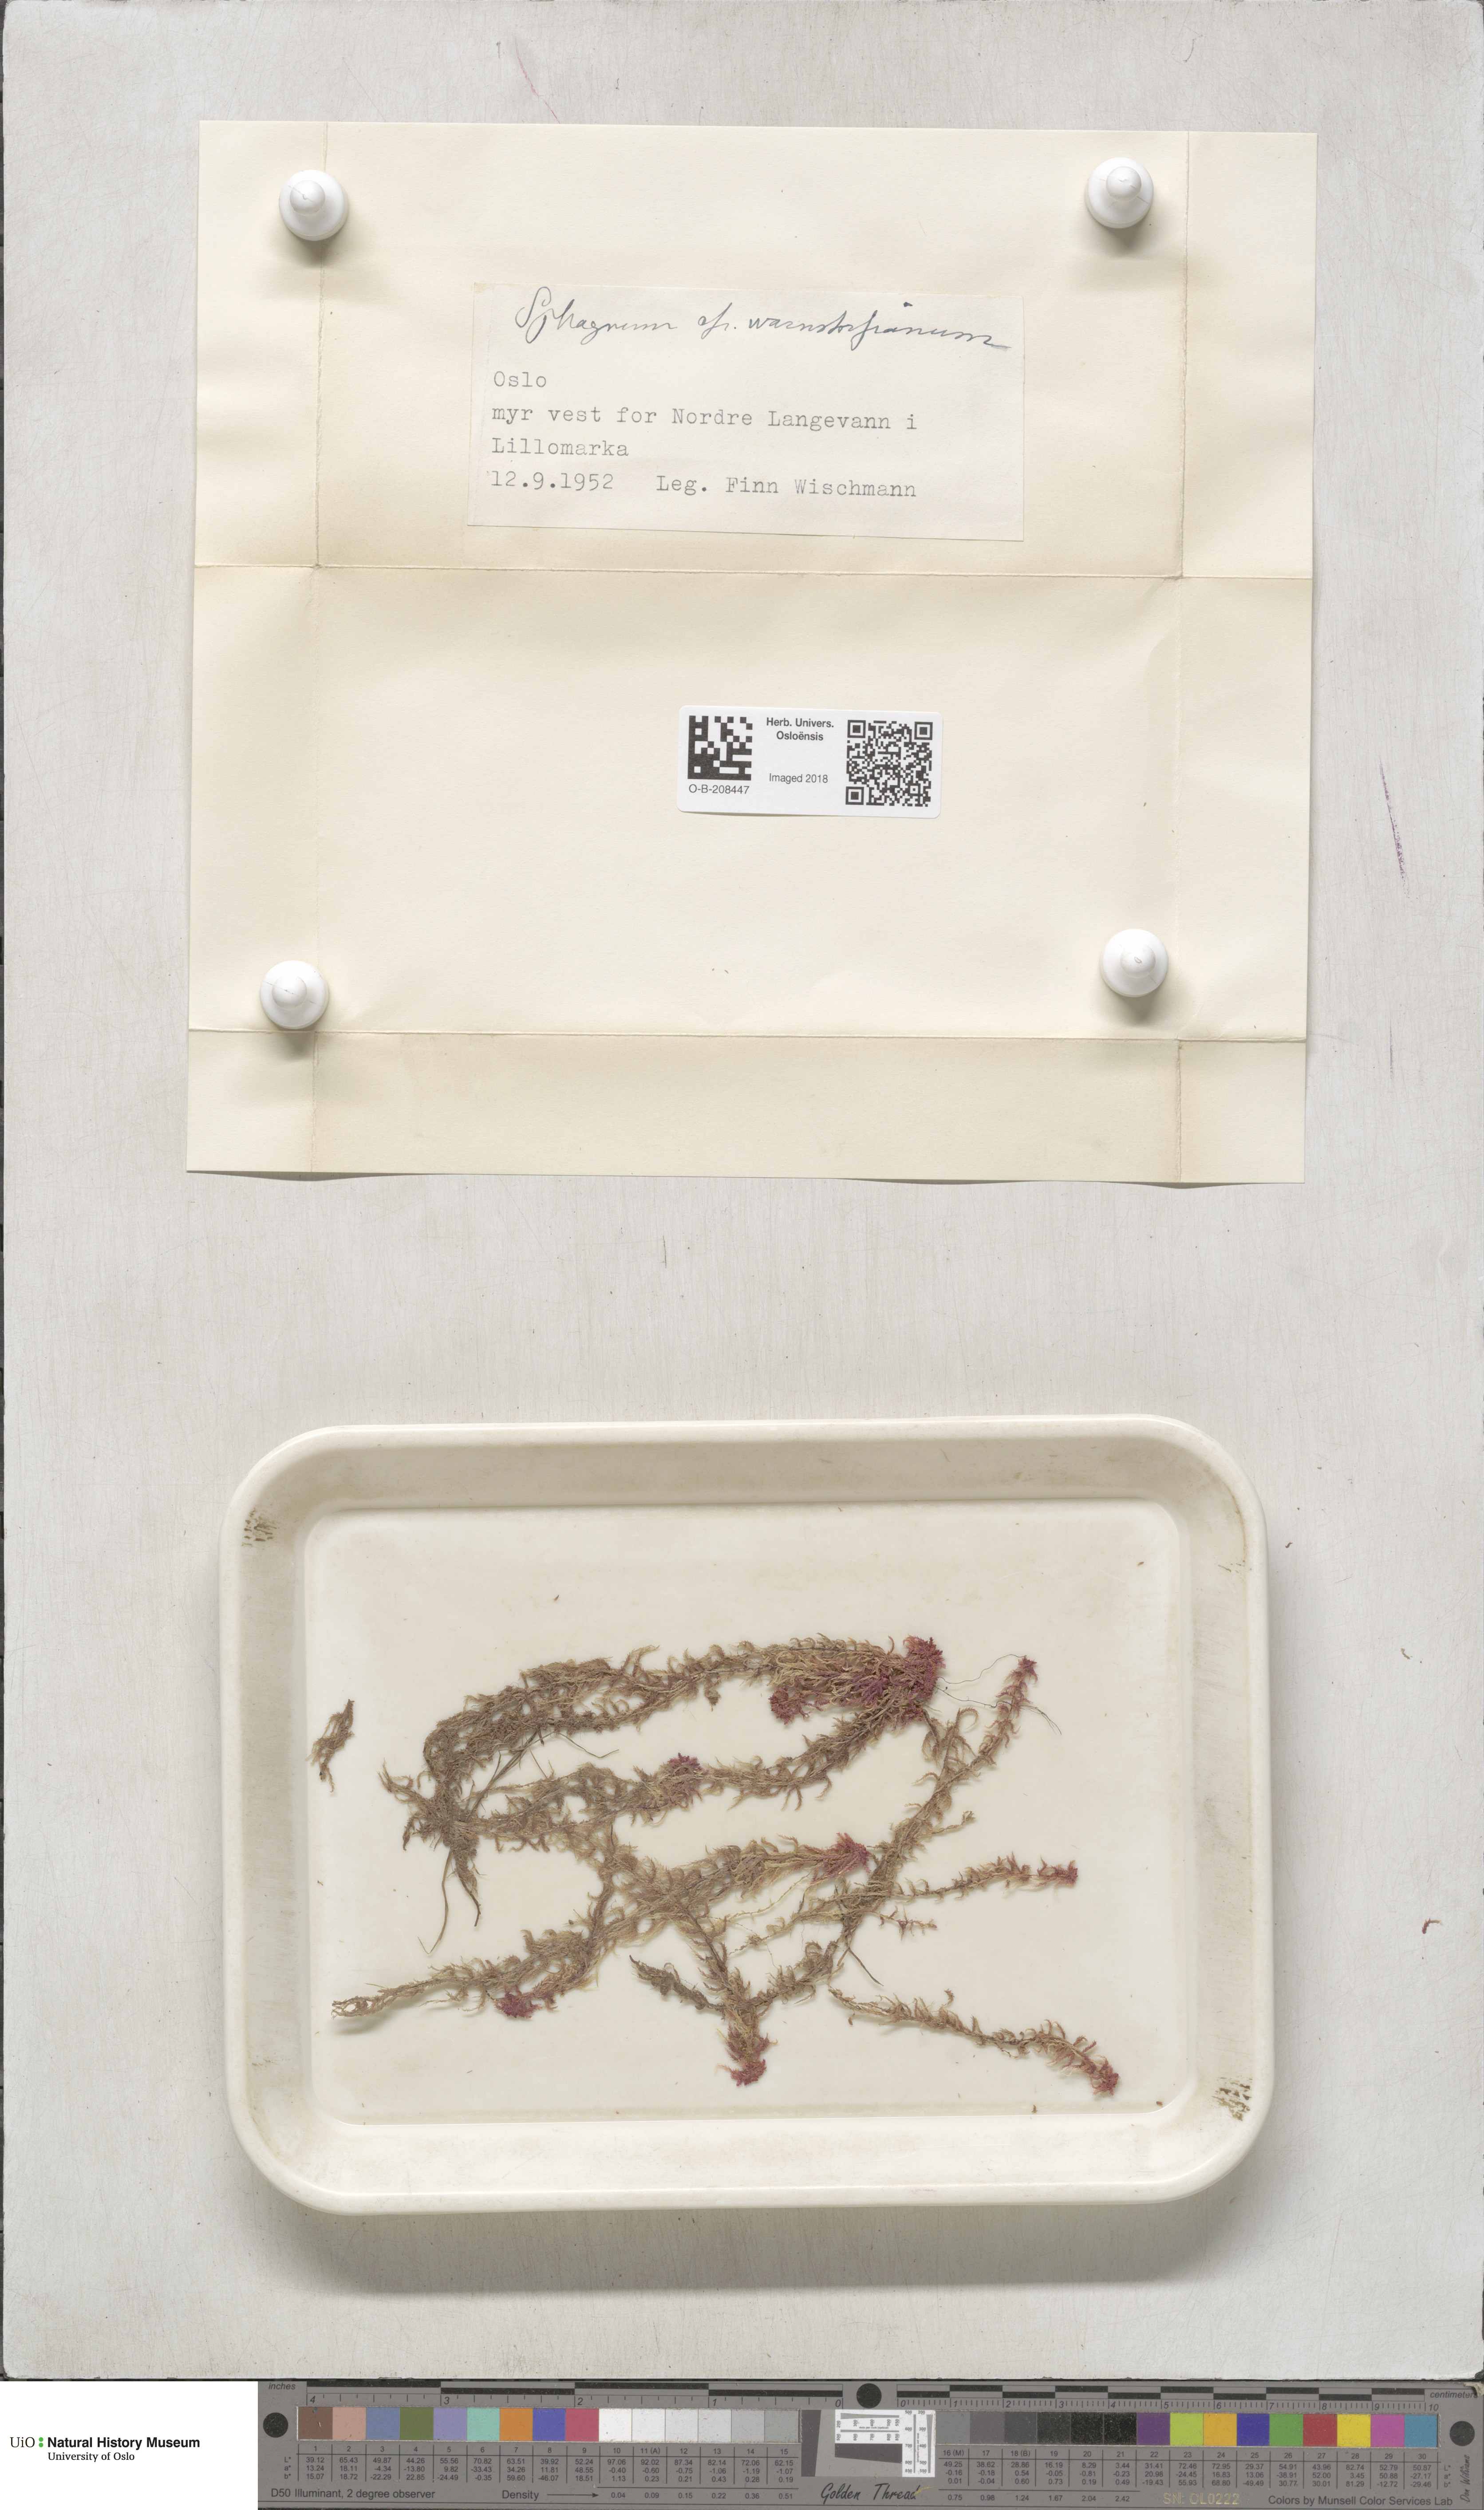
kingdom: Plantae
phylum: Bryophyta
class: Sphagnopsida
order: Sphagnales
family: Sphagnaceae
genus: Sphagnum
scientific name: Sphagnum warnstorfii
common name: Warnstorf's peat moss
